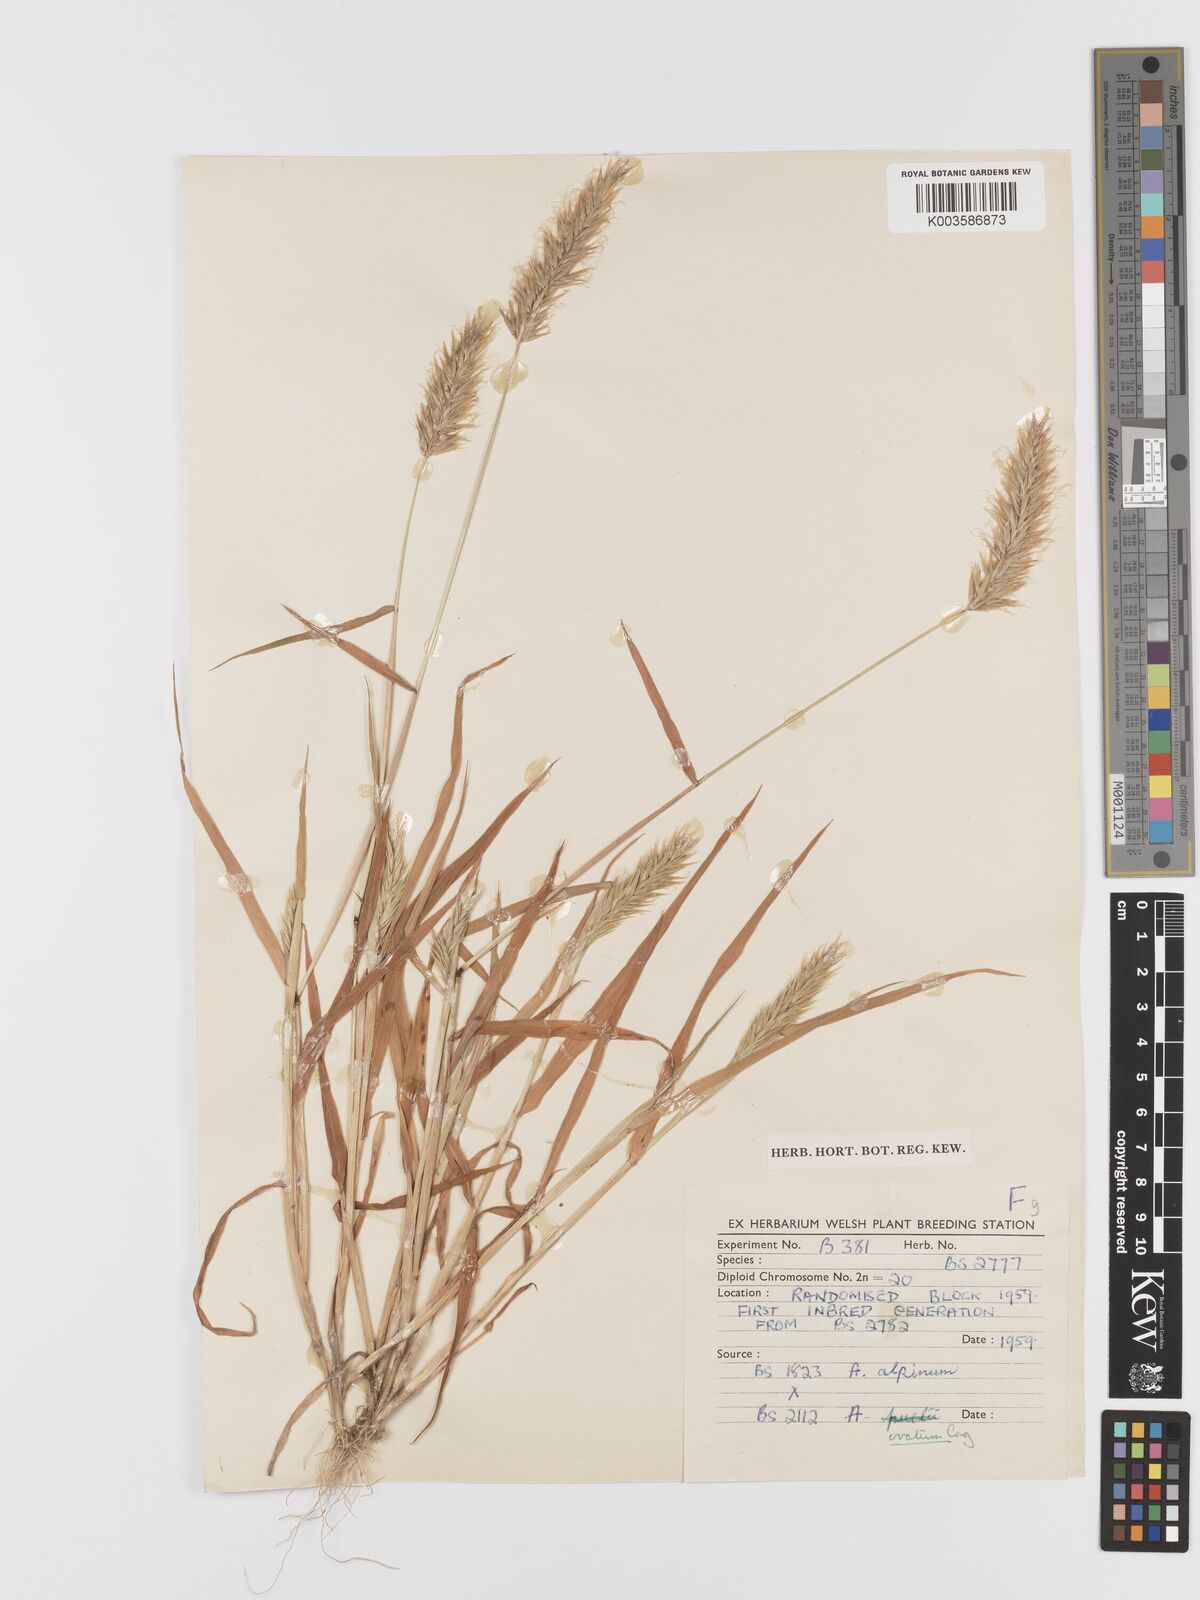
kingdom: Plantae
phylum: Tracheophyta
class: Liliopsida
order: Poales
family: Poaceae
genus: Anthoxanthum
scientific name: Anthoxanthum ovatum
